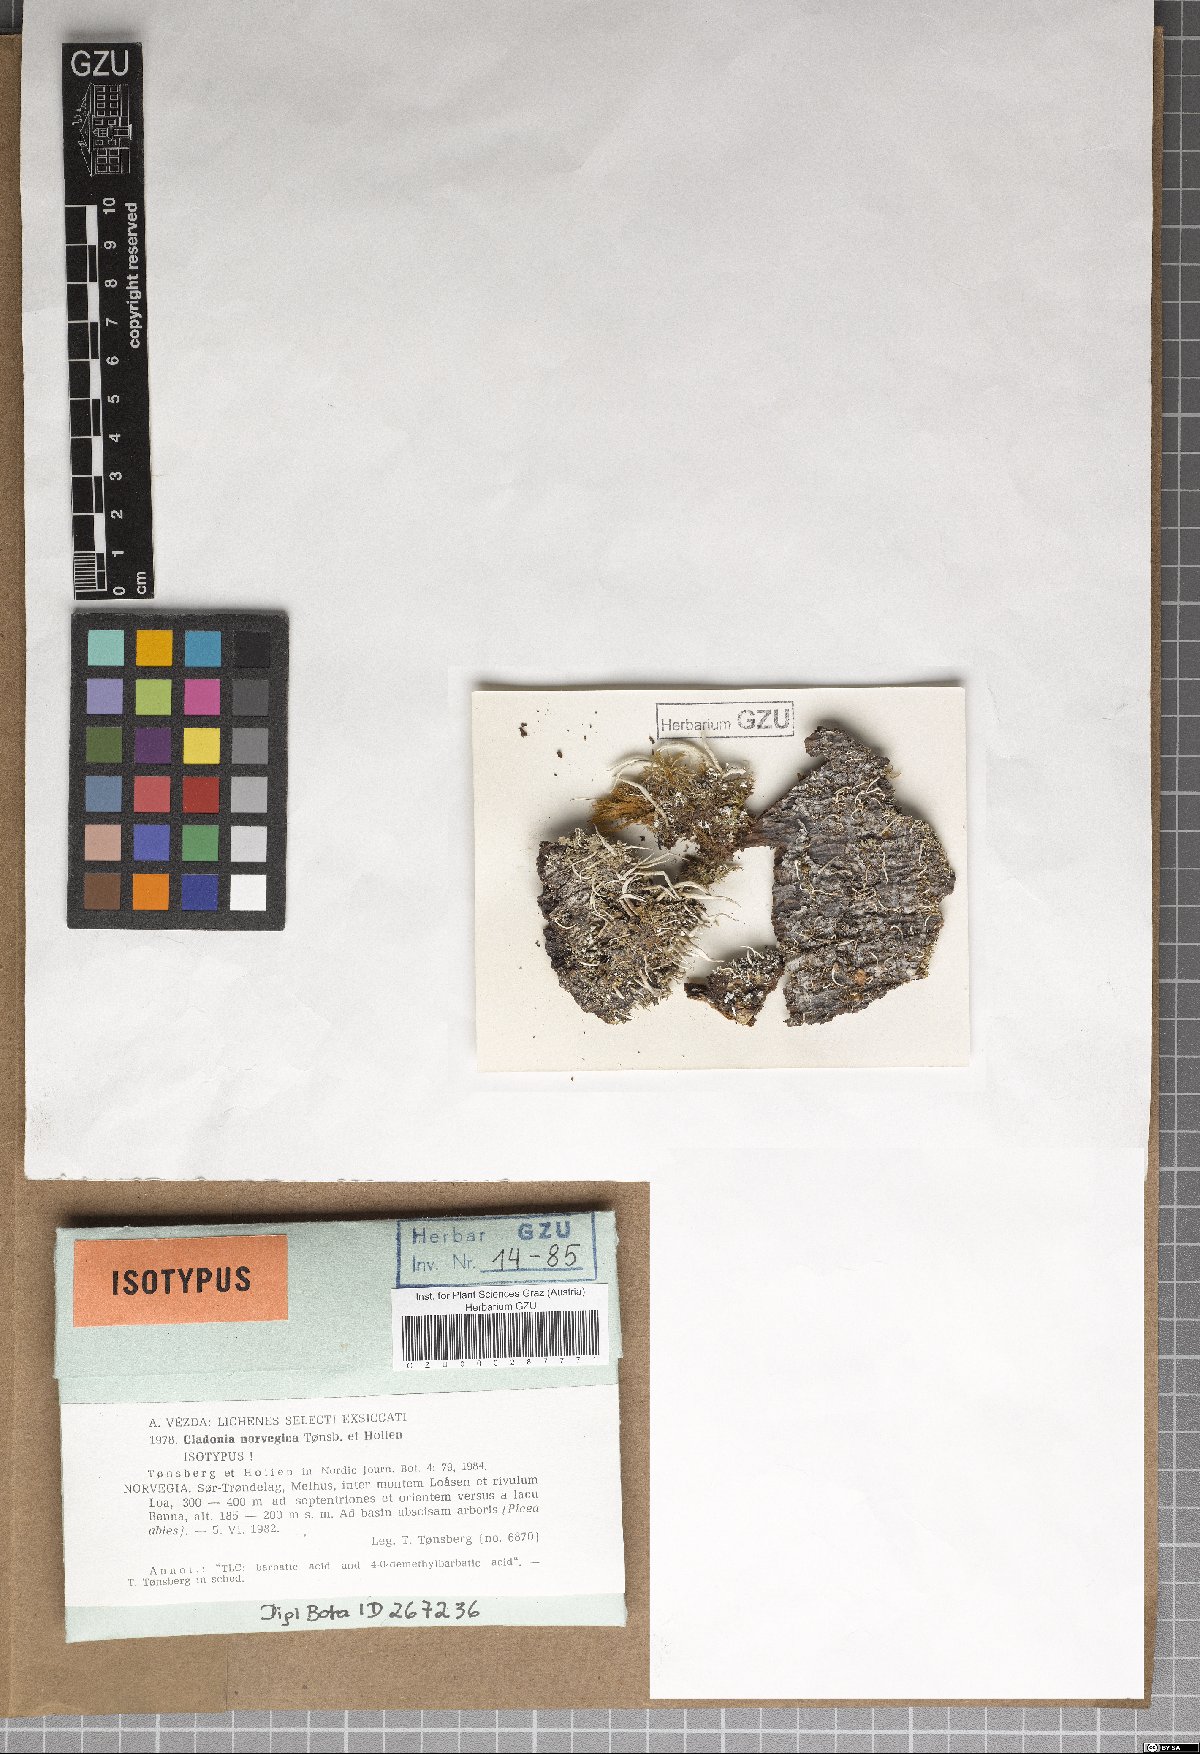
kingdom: Fungi
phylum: Ascomycota
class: Lecanoromycetes
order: Lecanorales
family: Cladoniaceae
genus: Cladonia
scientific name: Cladonia norvegica
